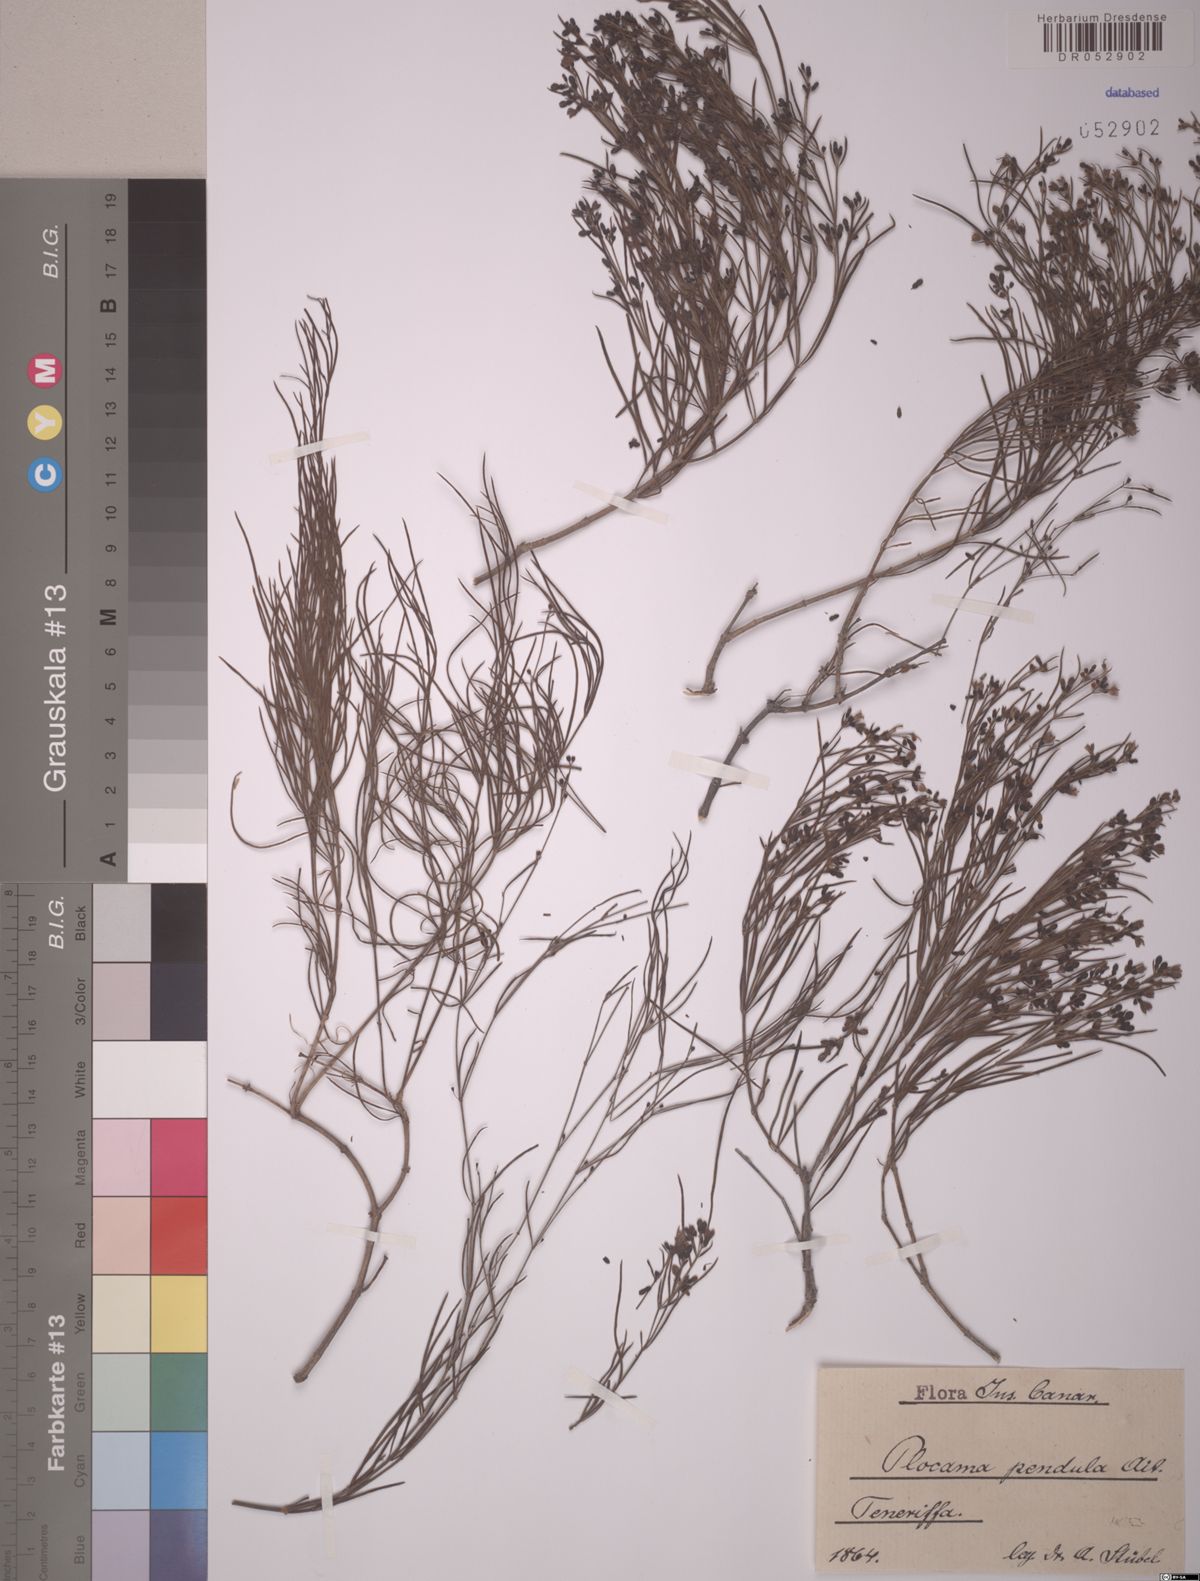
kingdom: Plantae
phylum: Tracheophyta
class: Magnoliopsida
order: Gentianales
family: Rubiaceae
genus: Plocama
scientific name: Plocama pendula
